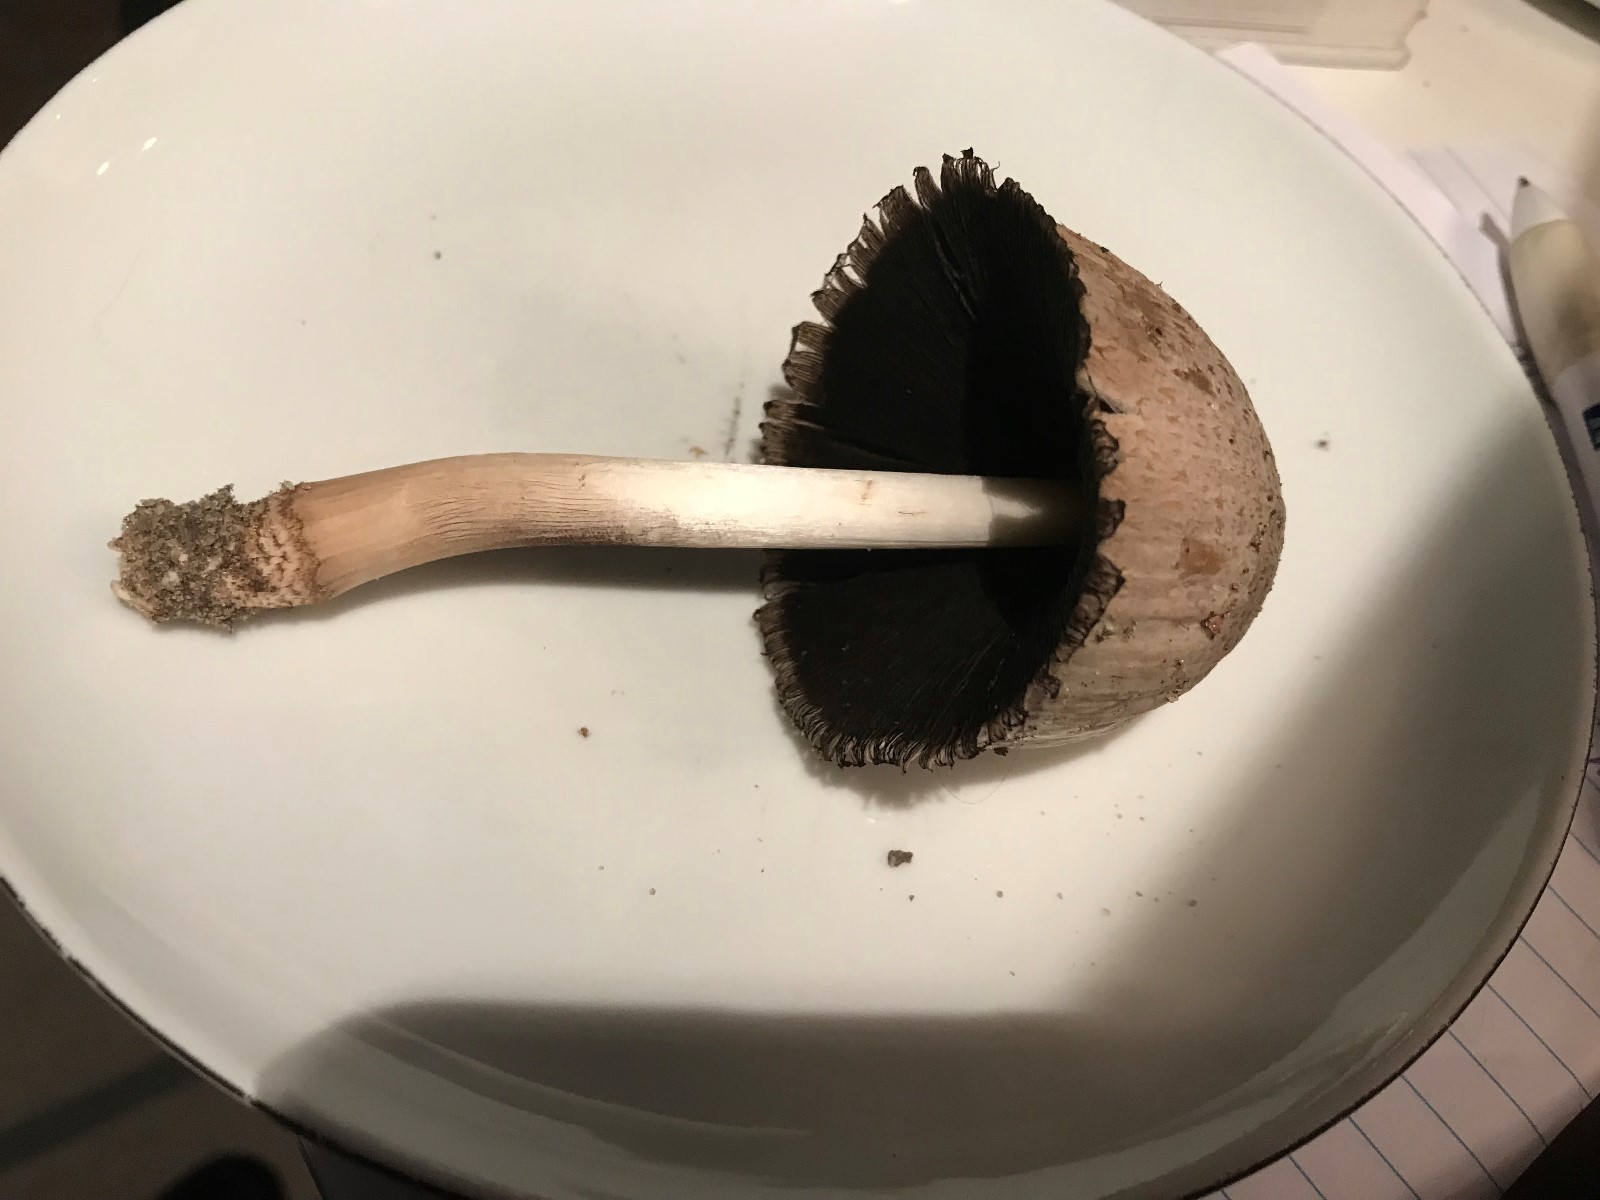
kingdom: Fungi
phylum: Basidiomycota
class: Agaricomycetes
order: Agaricales
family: Psathyrellaceae
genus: Coprinopsis
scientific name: Coprinopsis atramentaria
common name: almindelig blækhat
